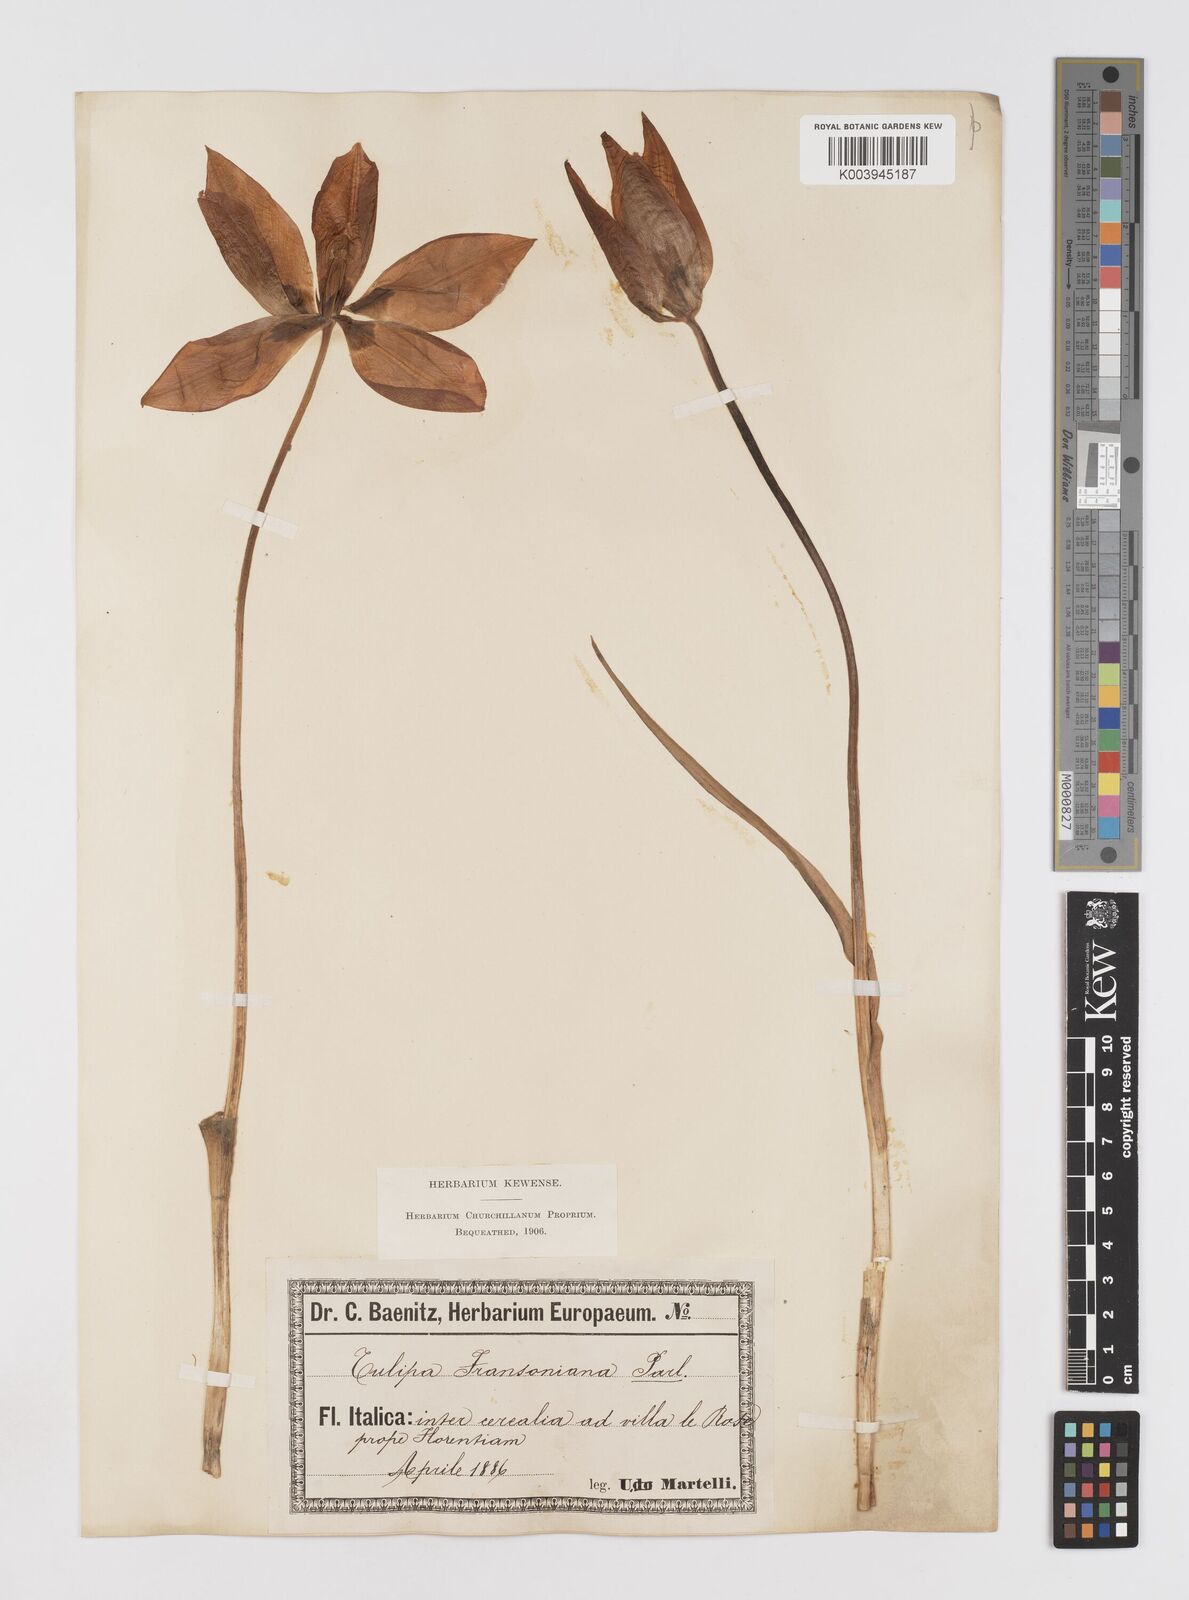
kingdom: Plantae
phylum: Tracheophyta
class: Liliopsida
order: Liliales
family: Liliaceae
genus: Tulipa
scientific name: Tulipa gesneriana
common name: Garden tulip
